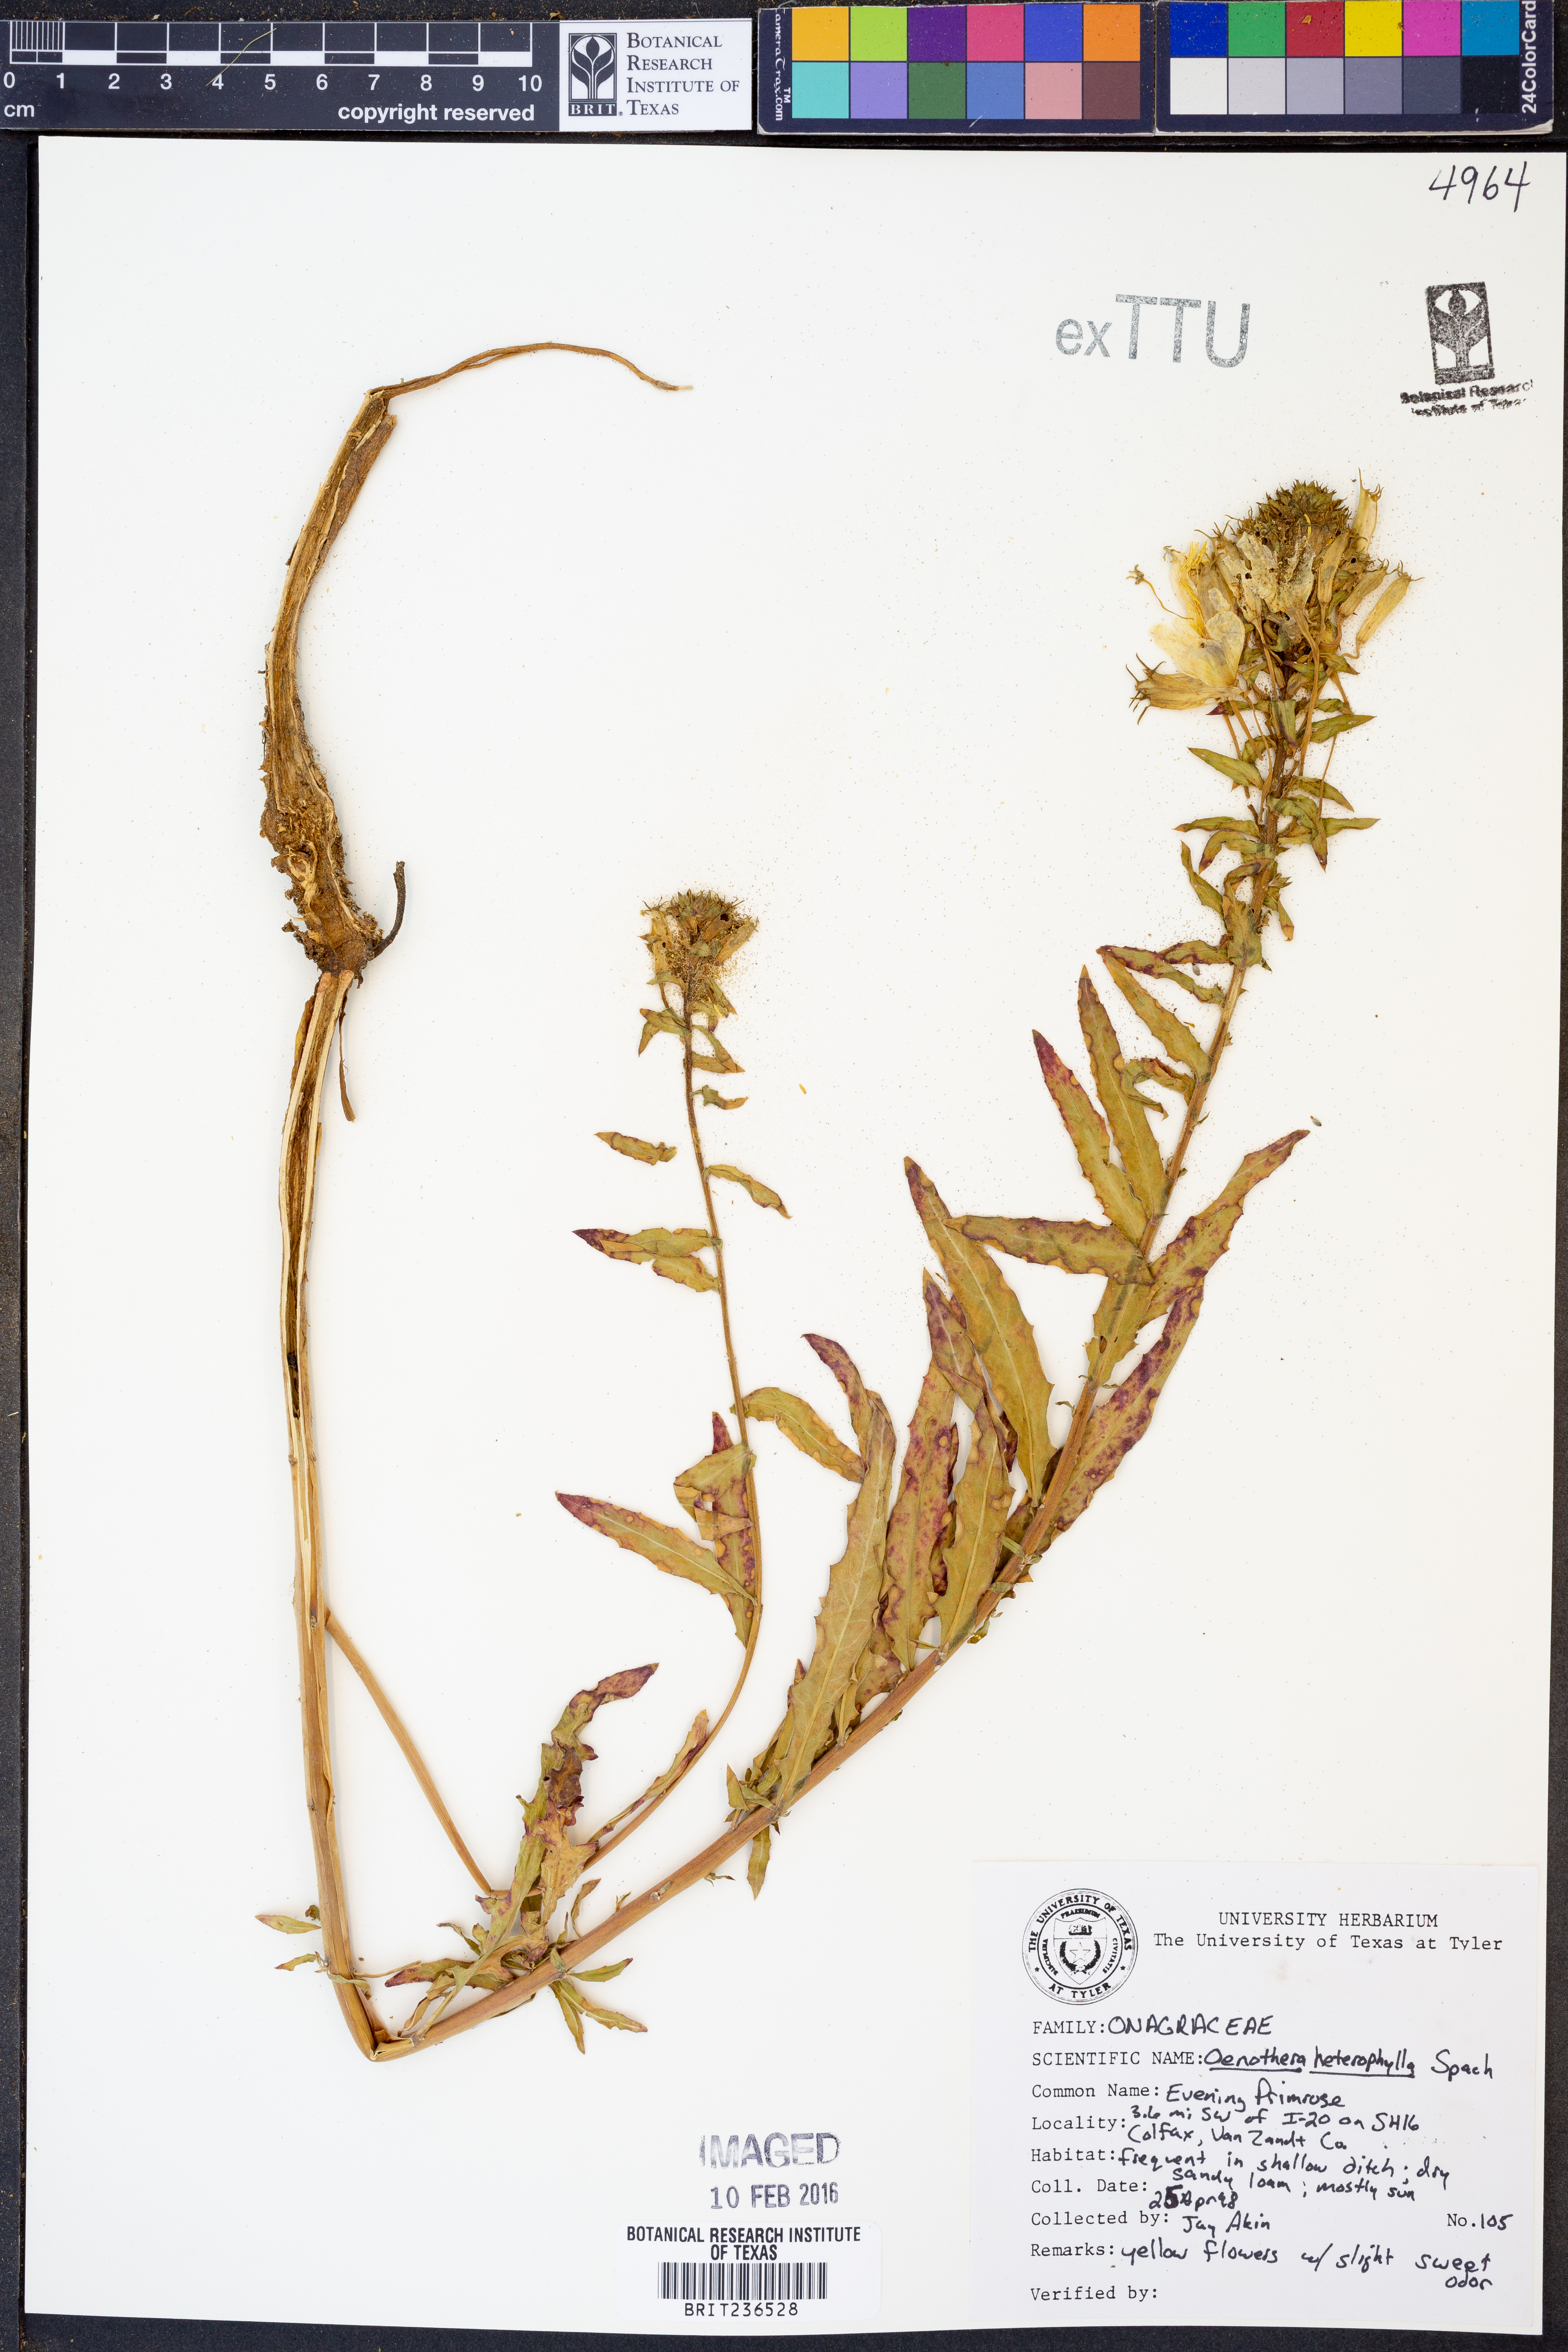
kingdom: Plantae
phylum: Tracheophyta
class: Magnoliopsida
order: Myrtales
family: Onagraceae
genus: Camissonia
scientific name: Camissonia dentata
